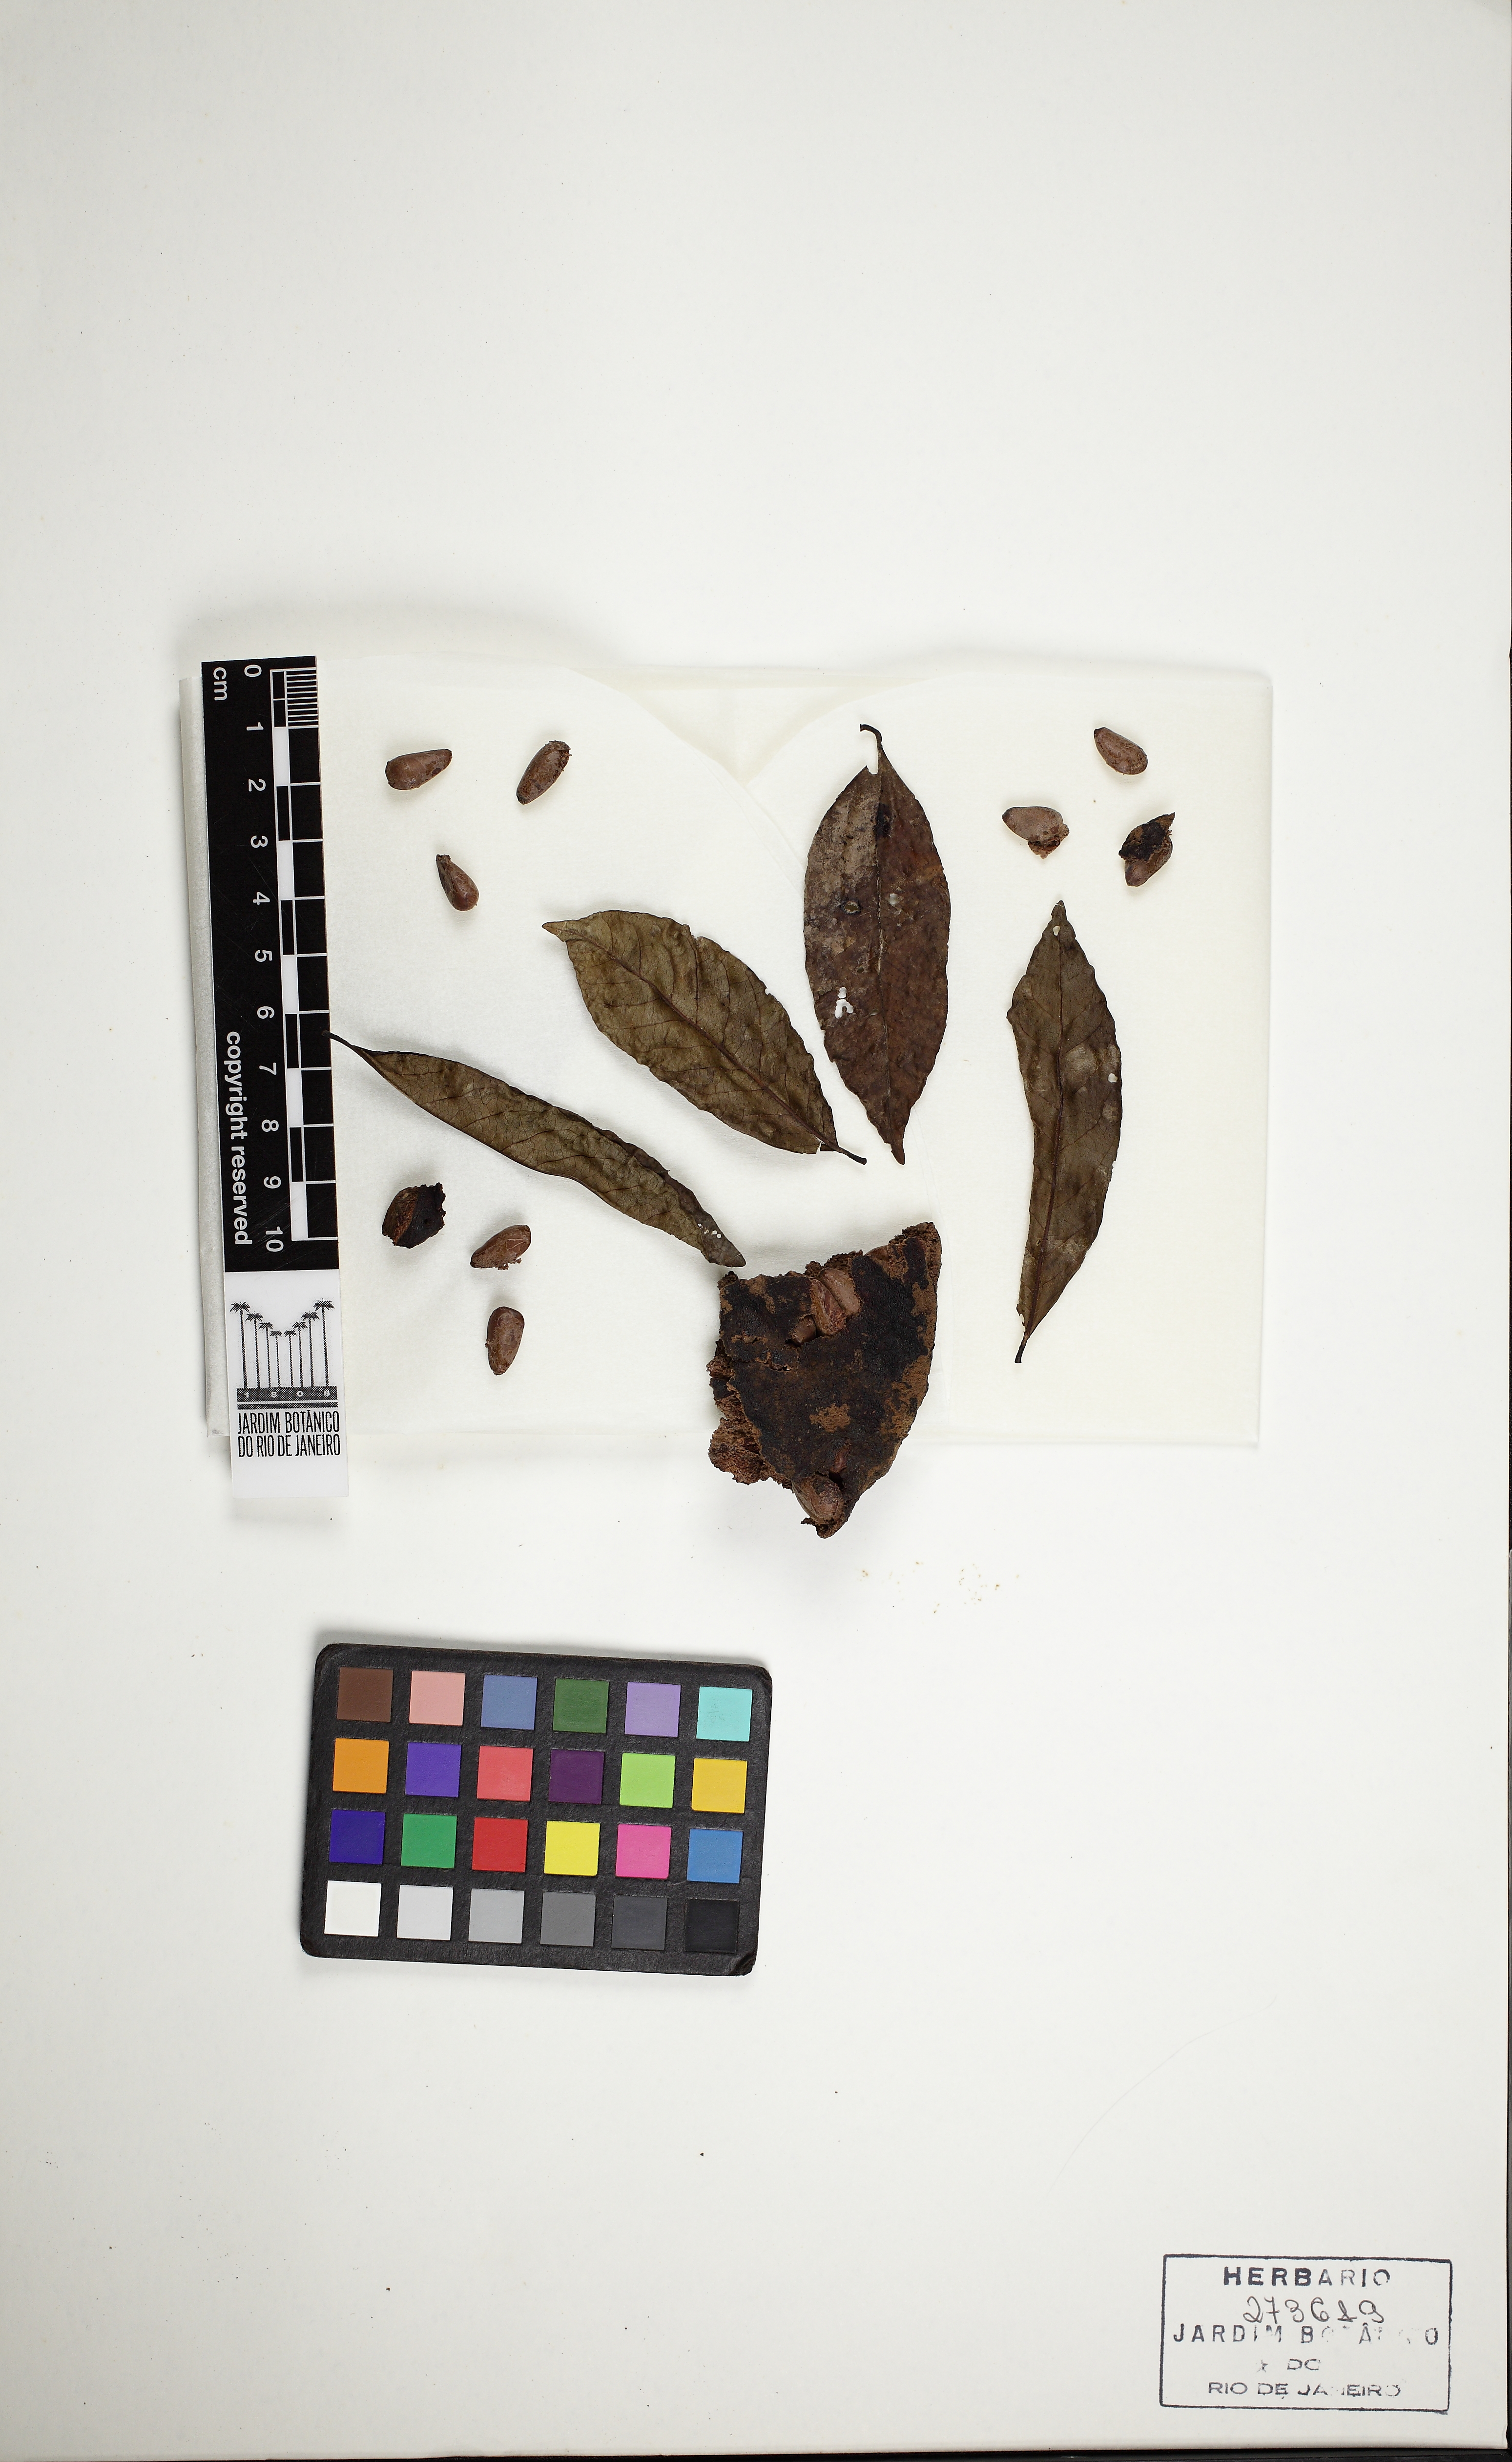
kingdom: Plantae
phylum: Tracheophyta
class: Magnoliopsida
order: Magnoliales
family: Annonaceae
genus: Annona
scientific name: Annona rugulosa
